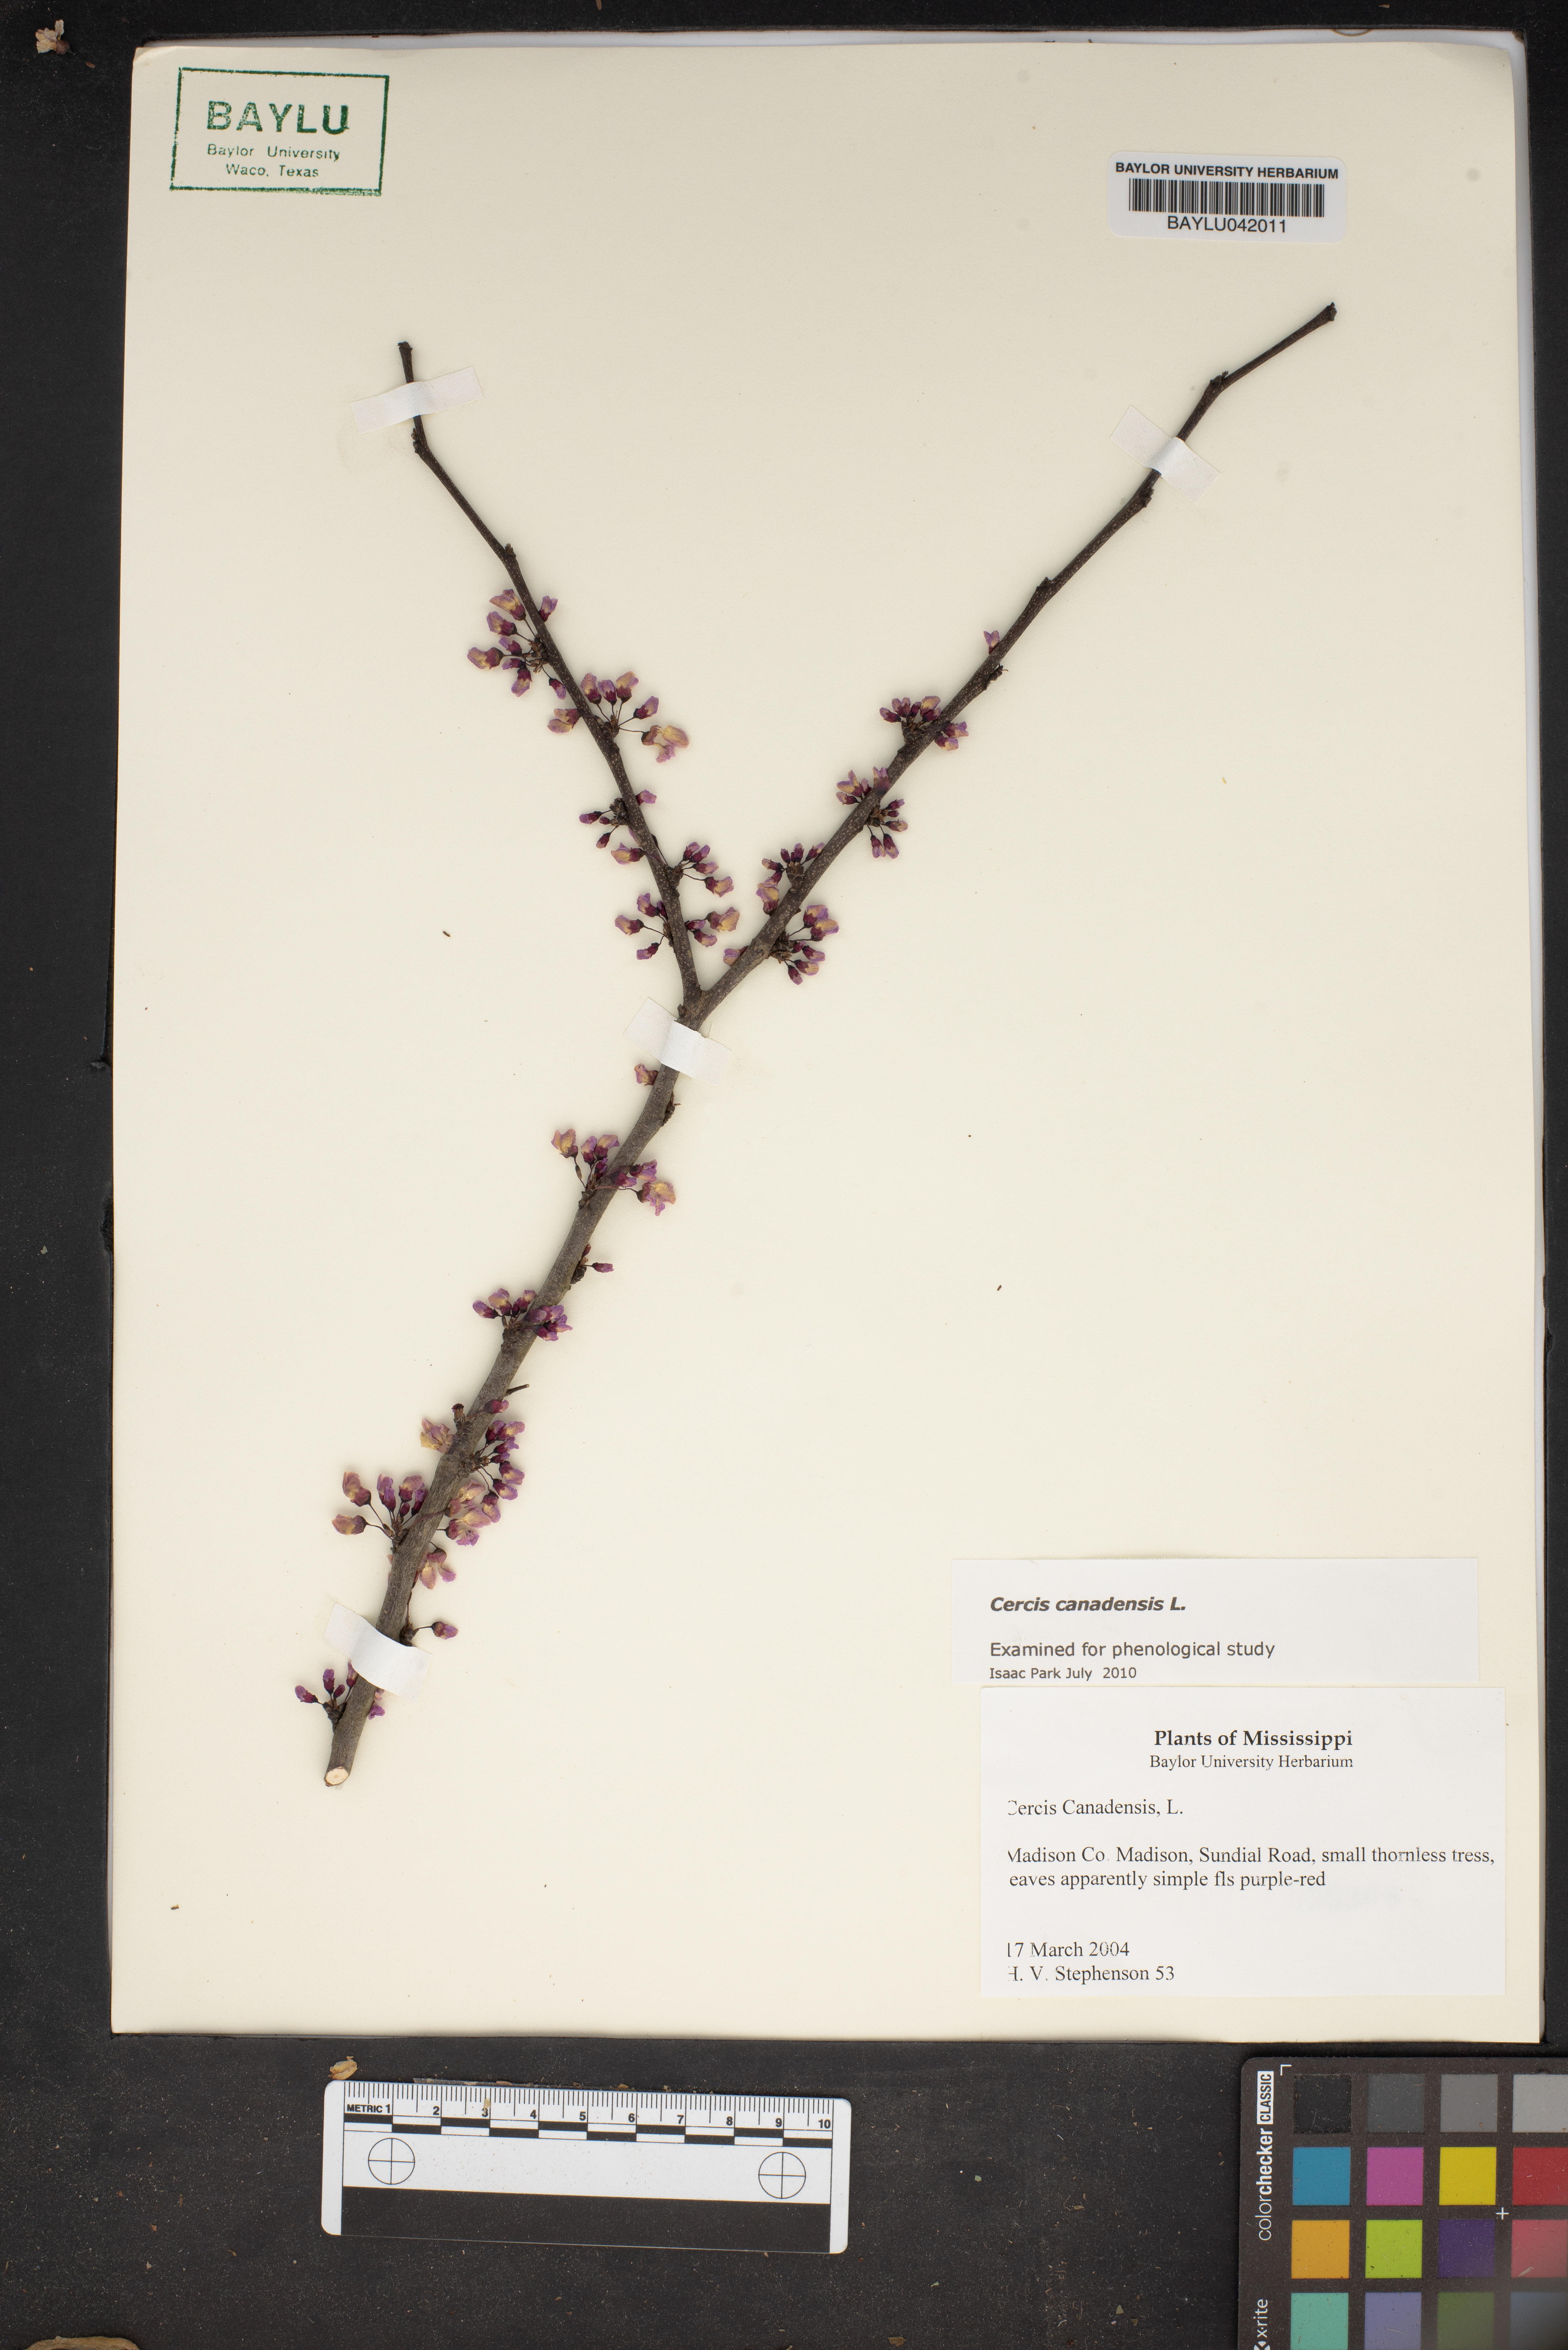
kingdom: Plantae
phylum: Tracheophyta
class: Magnoliopsida
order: Fabales
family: Fabaceae
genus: Cercis
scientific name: Cercis canadensis
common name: Eastern redbud
